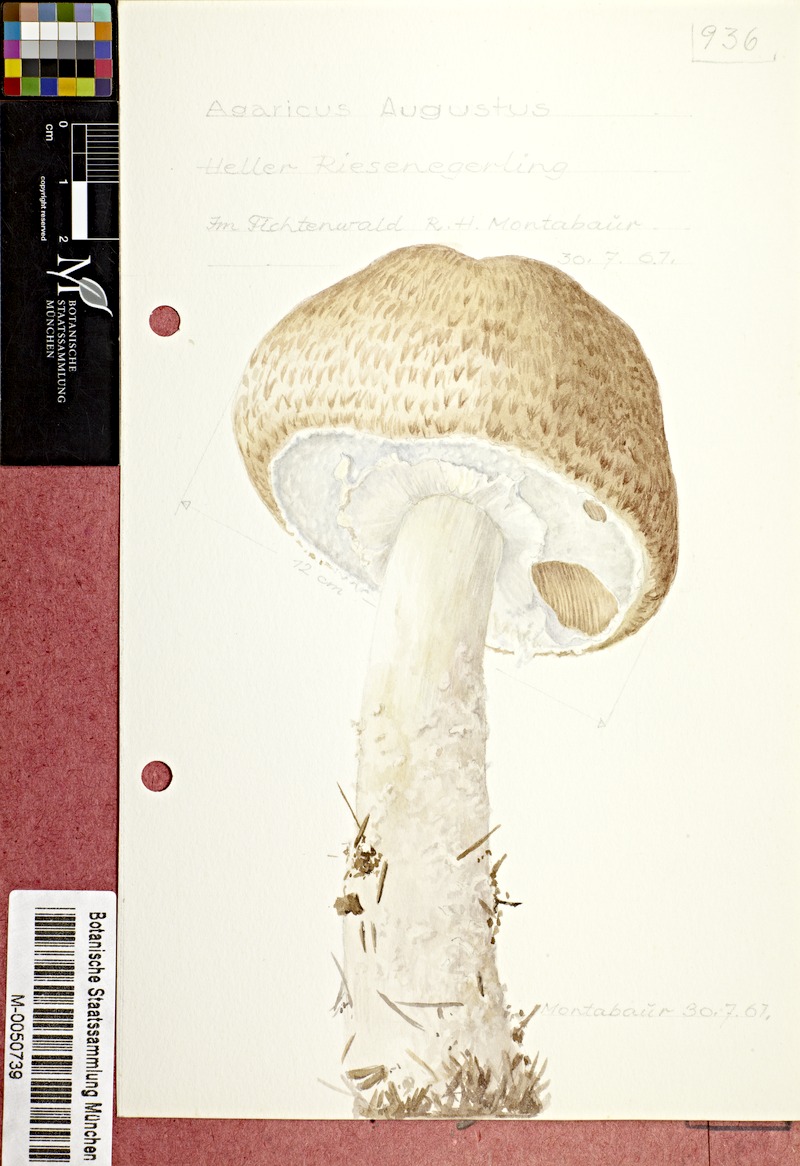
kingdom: Fungi
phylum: Basidiomycota
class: Agaricomycetes
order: Agaricales
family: Agaricaceae
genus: Agaricus
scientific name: Agaricus augustus
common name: Prince
